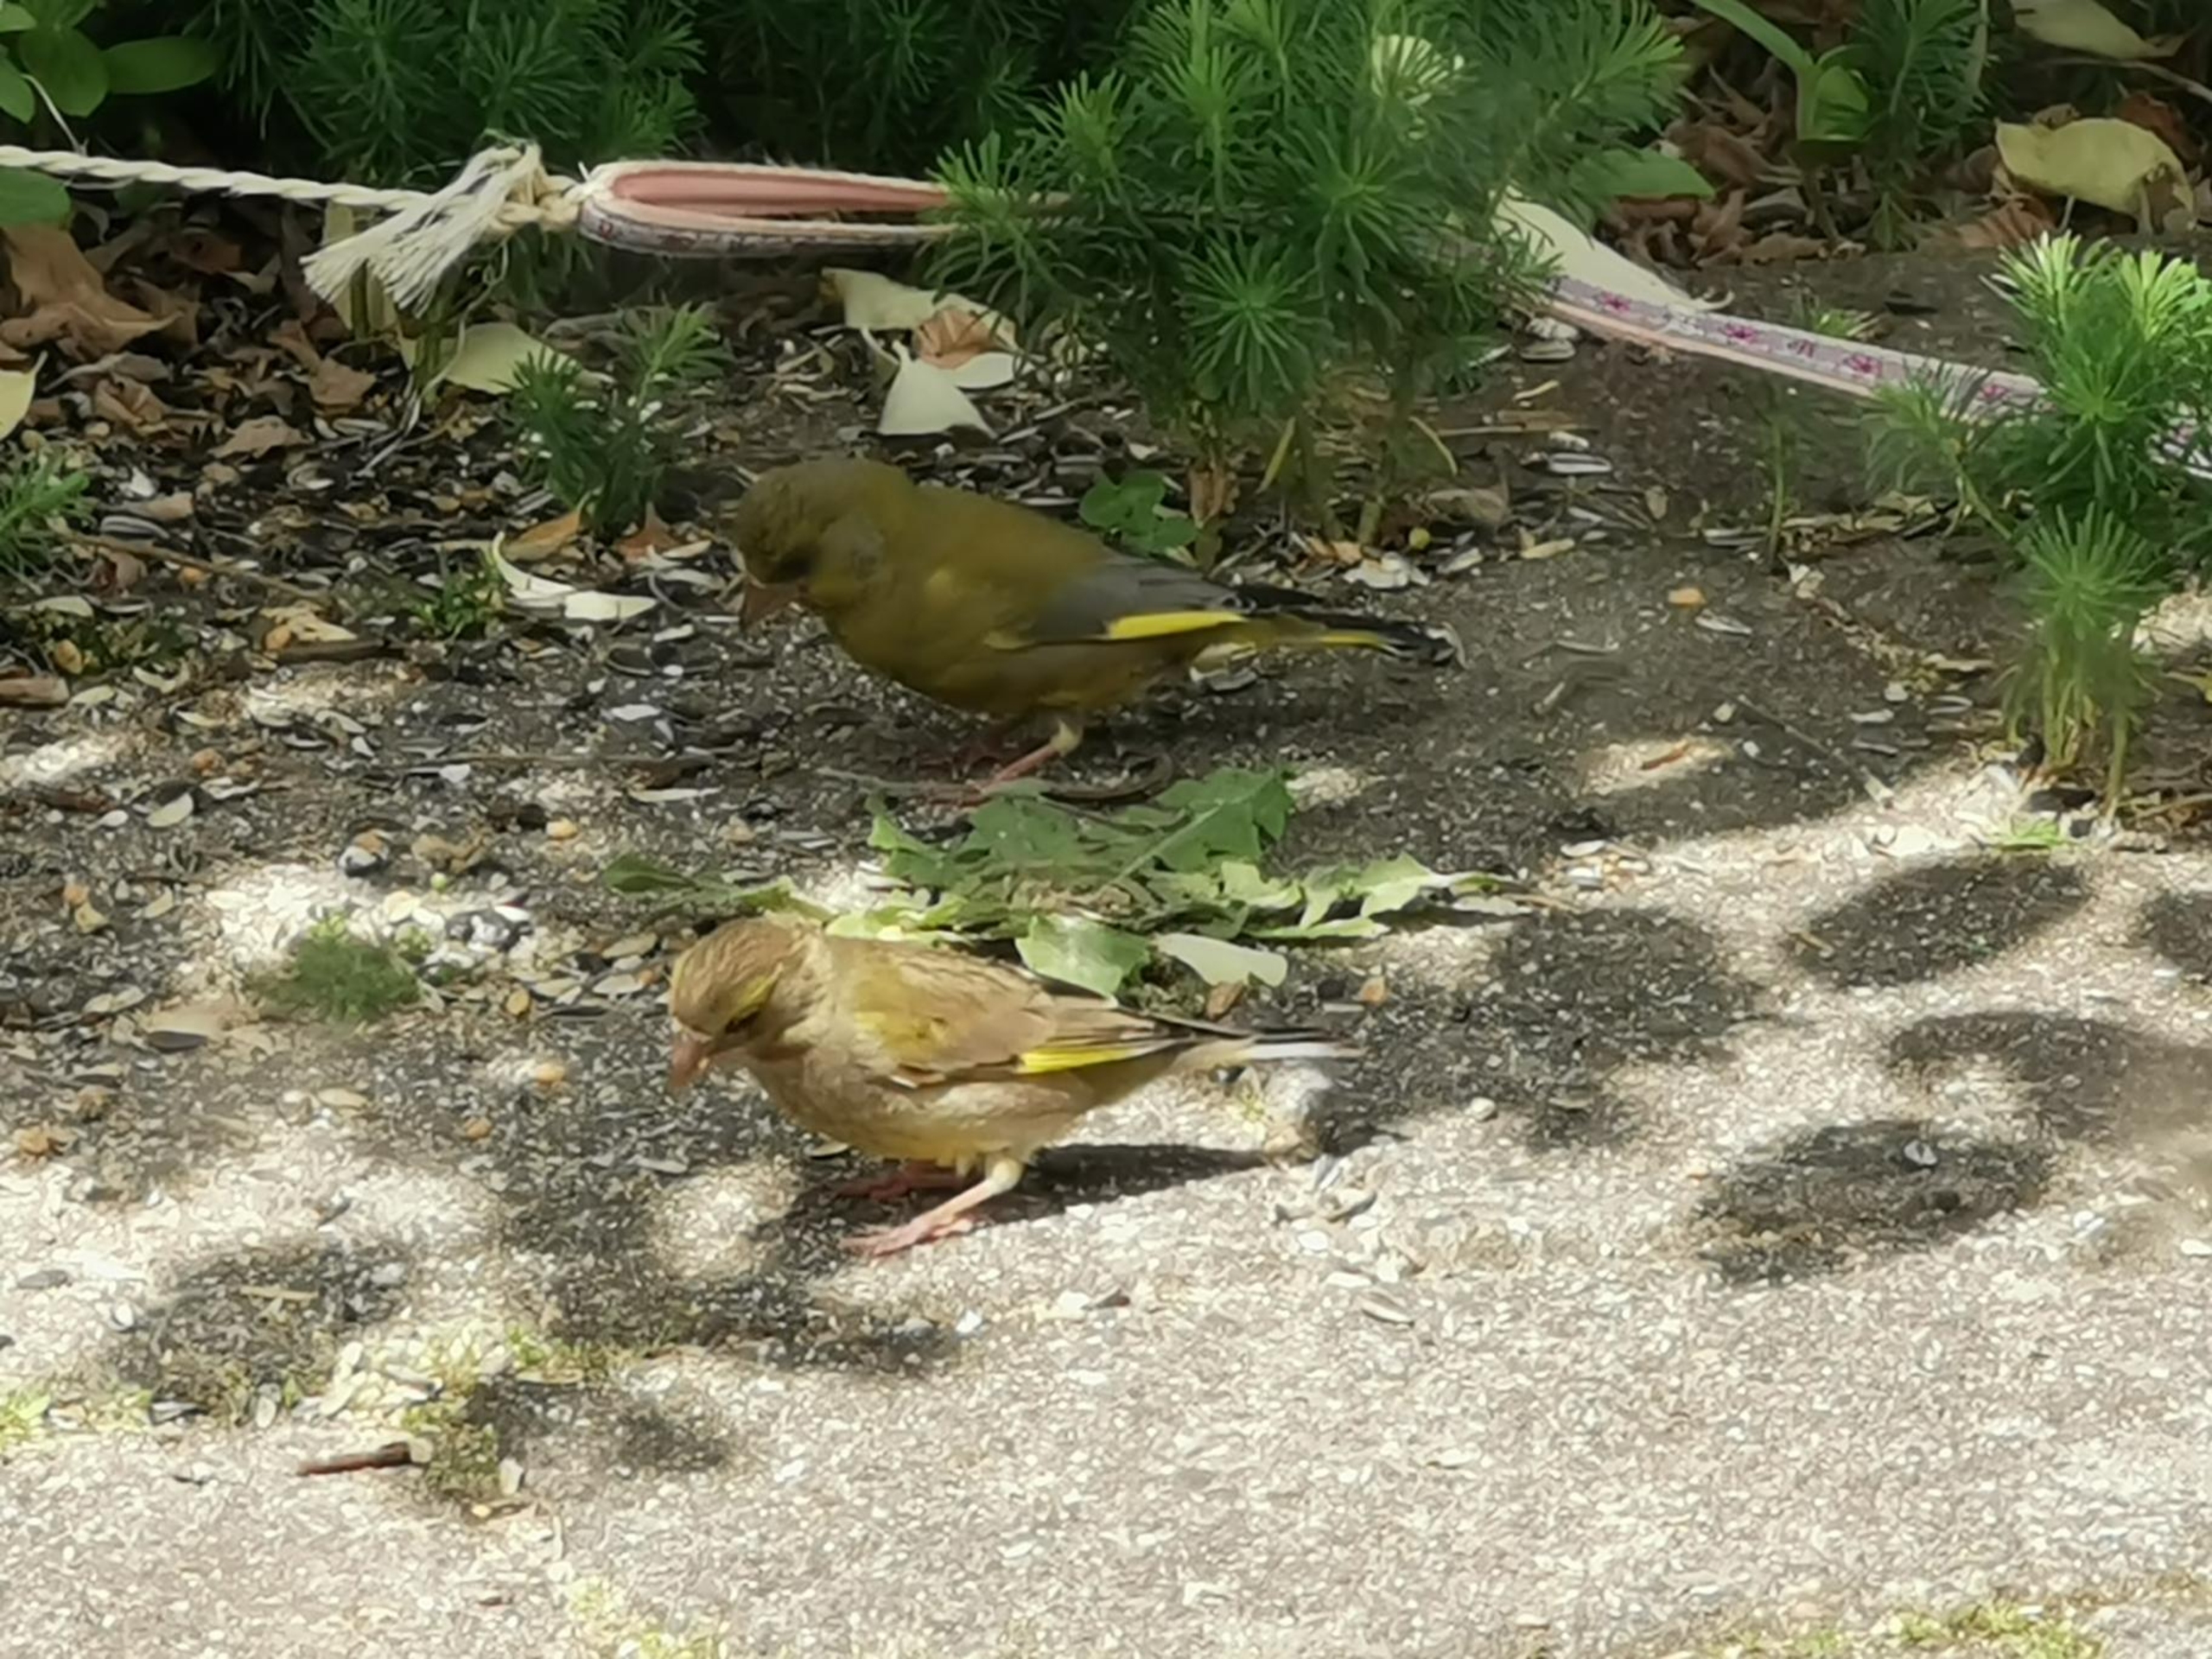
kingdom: Plantae
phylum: Tracheophyta
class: Liliopsida
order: Poales
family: Poaceae
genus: Chloris
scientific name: Chloris chloris
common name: Grønirisk
